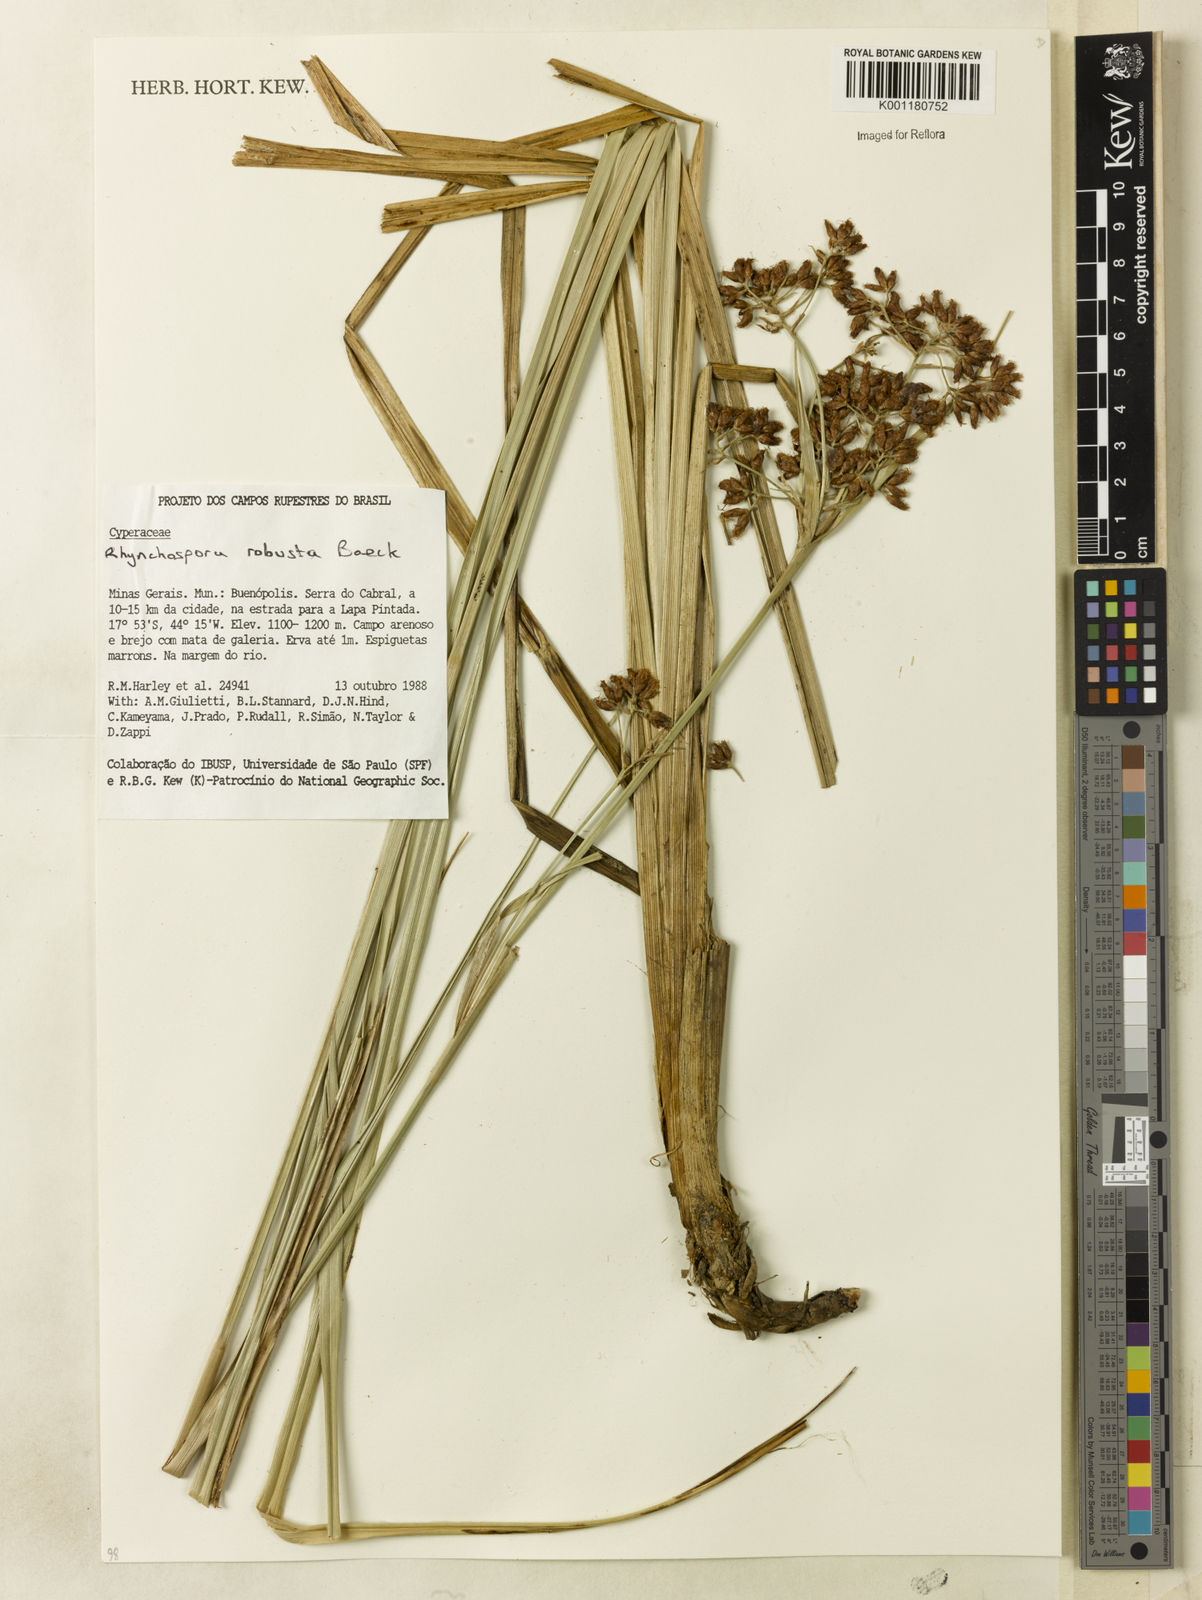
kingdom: Plantae
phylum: Tracheophyta
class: Liliopsida
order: Poales
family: Cyperaceae
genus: Rhynchospora
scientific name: Rhynchospora robusta
